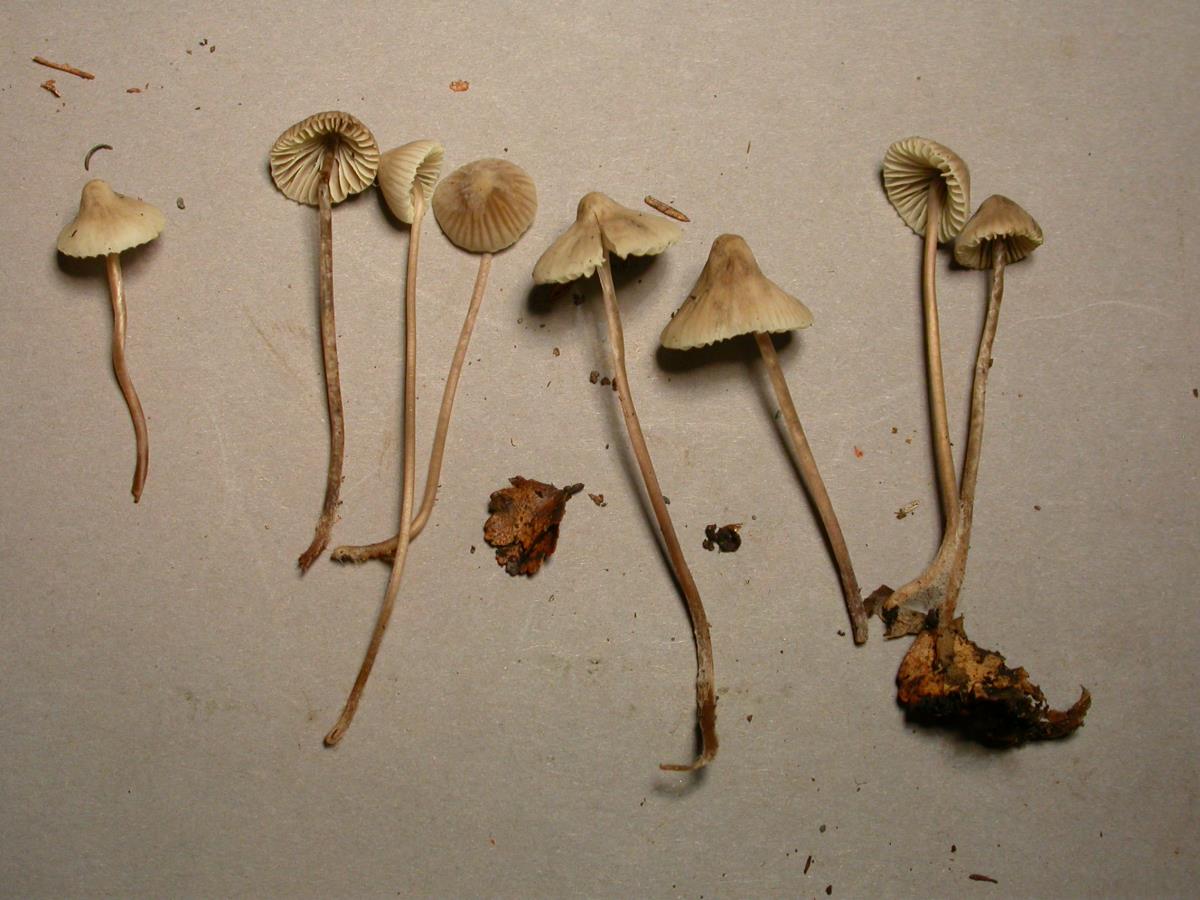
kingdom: Fungi
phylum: Basidiomycota
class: Agaricomycetes
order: Agaricales
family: Mycenaceae
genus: Mycena
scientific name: Mycena
